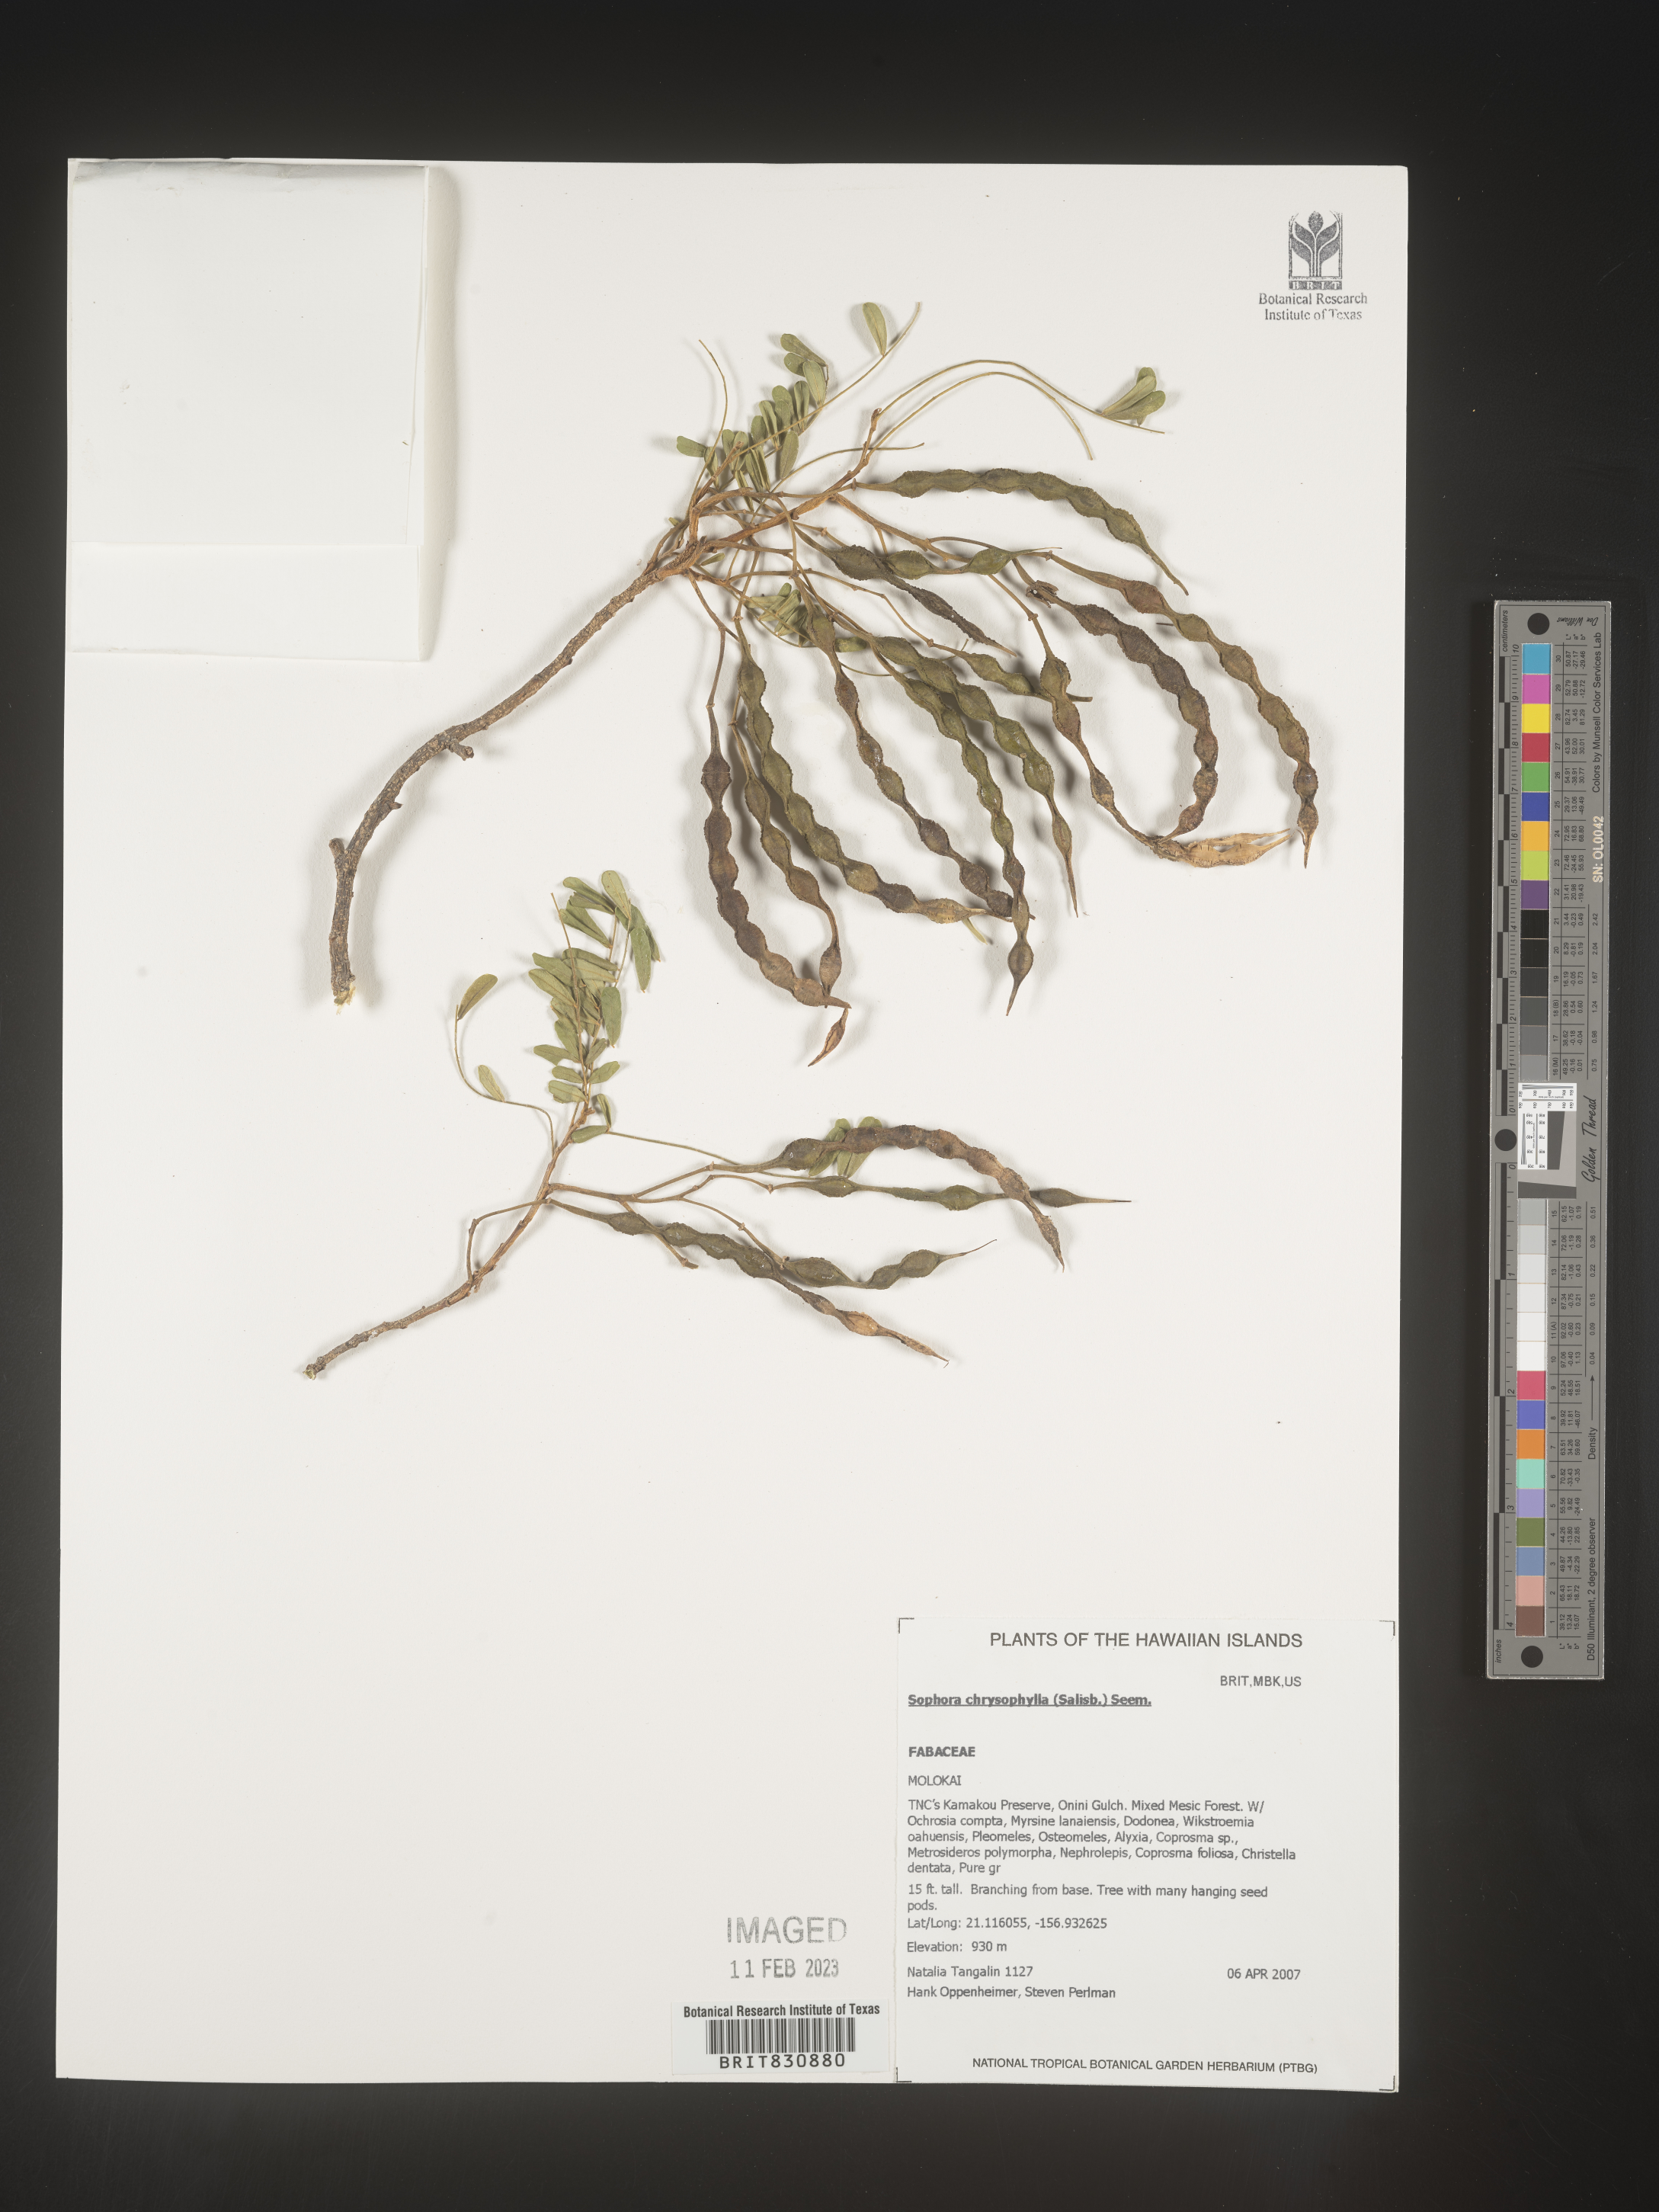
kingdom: Plantae
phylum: Tracheophyta
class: Magnoliopsida
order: Fabales
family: Fabaceae
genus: Sophora
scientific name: Sophora
